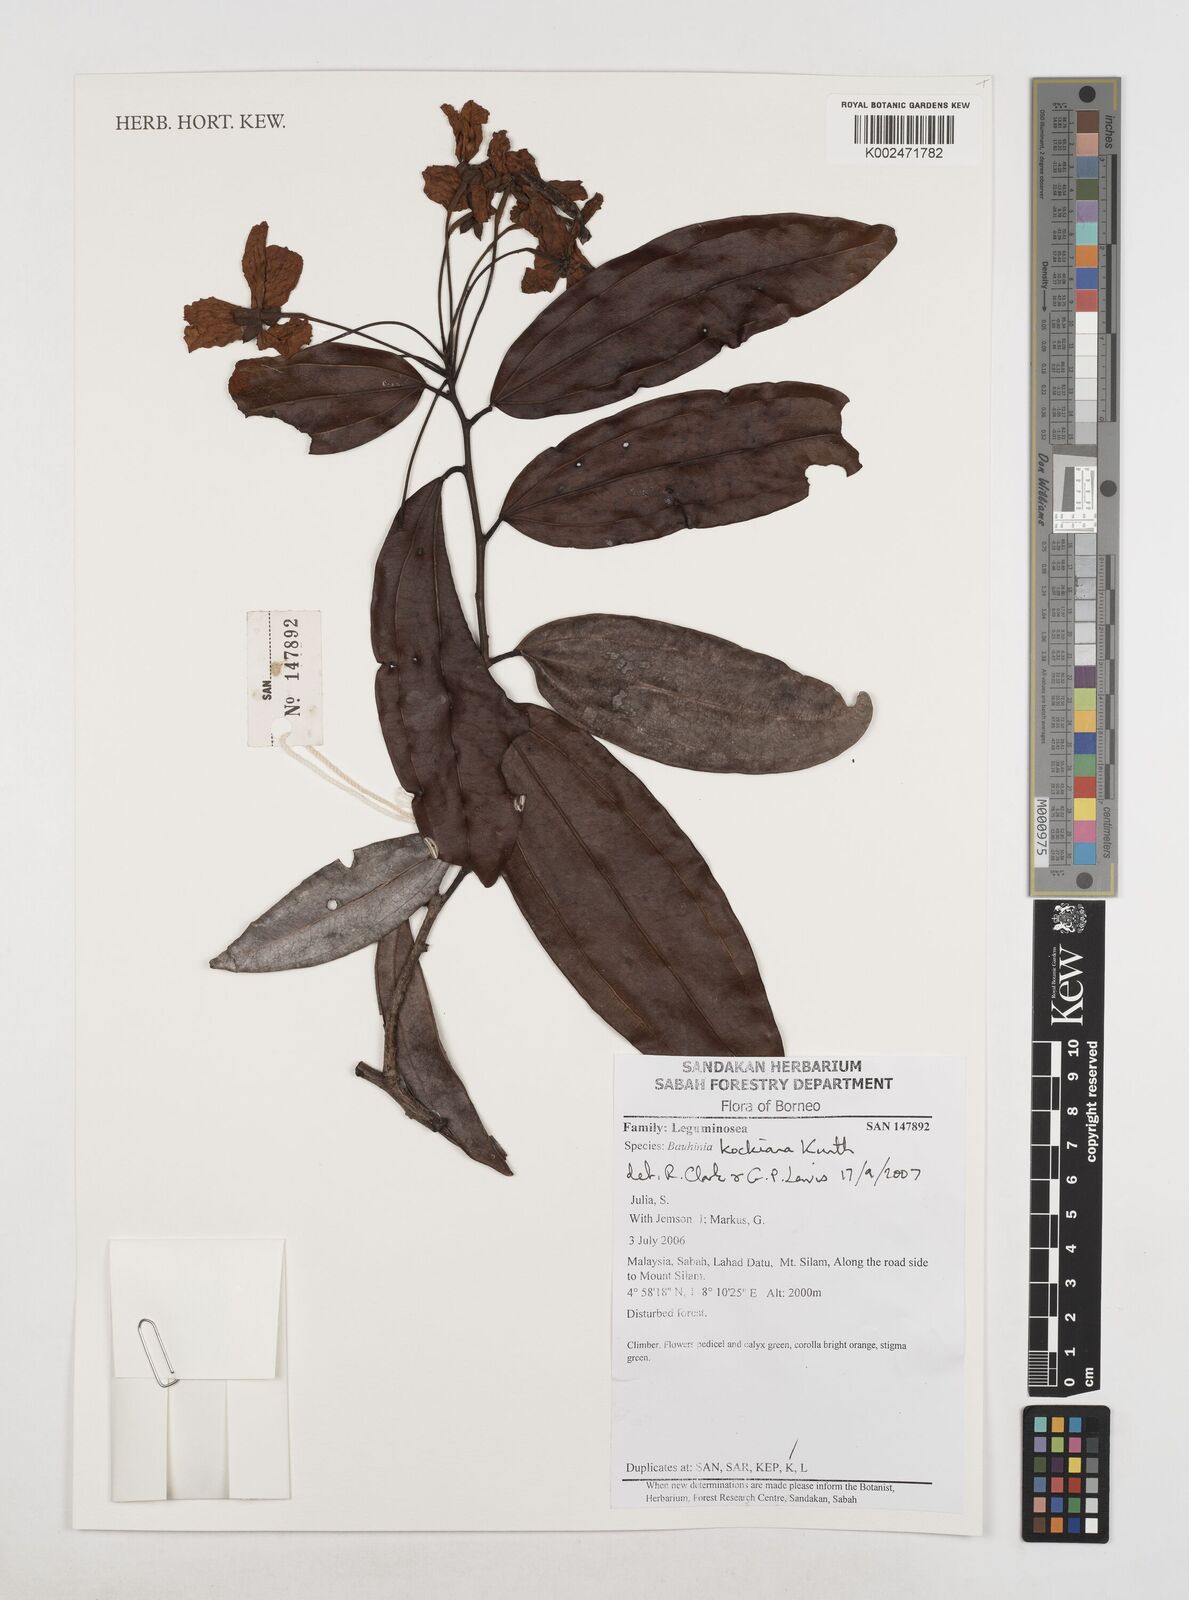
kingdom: Plantae
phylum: Tracheophyta
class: Magnoliopsida
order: Fabales
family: Fabaceae
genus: Phanera
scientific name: Phanera kockiana
